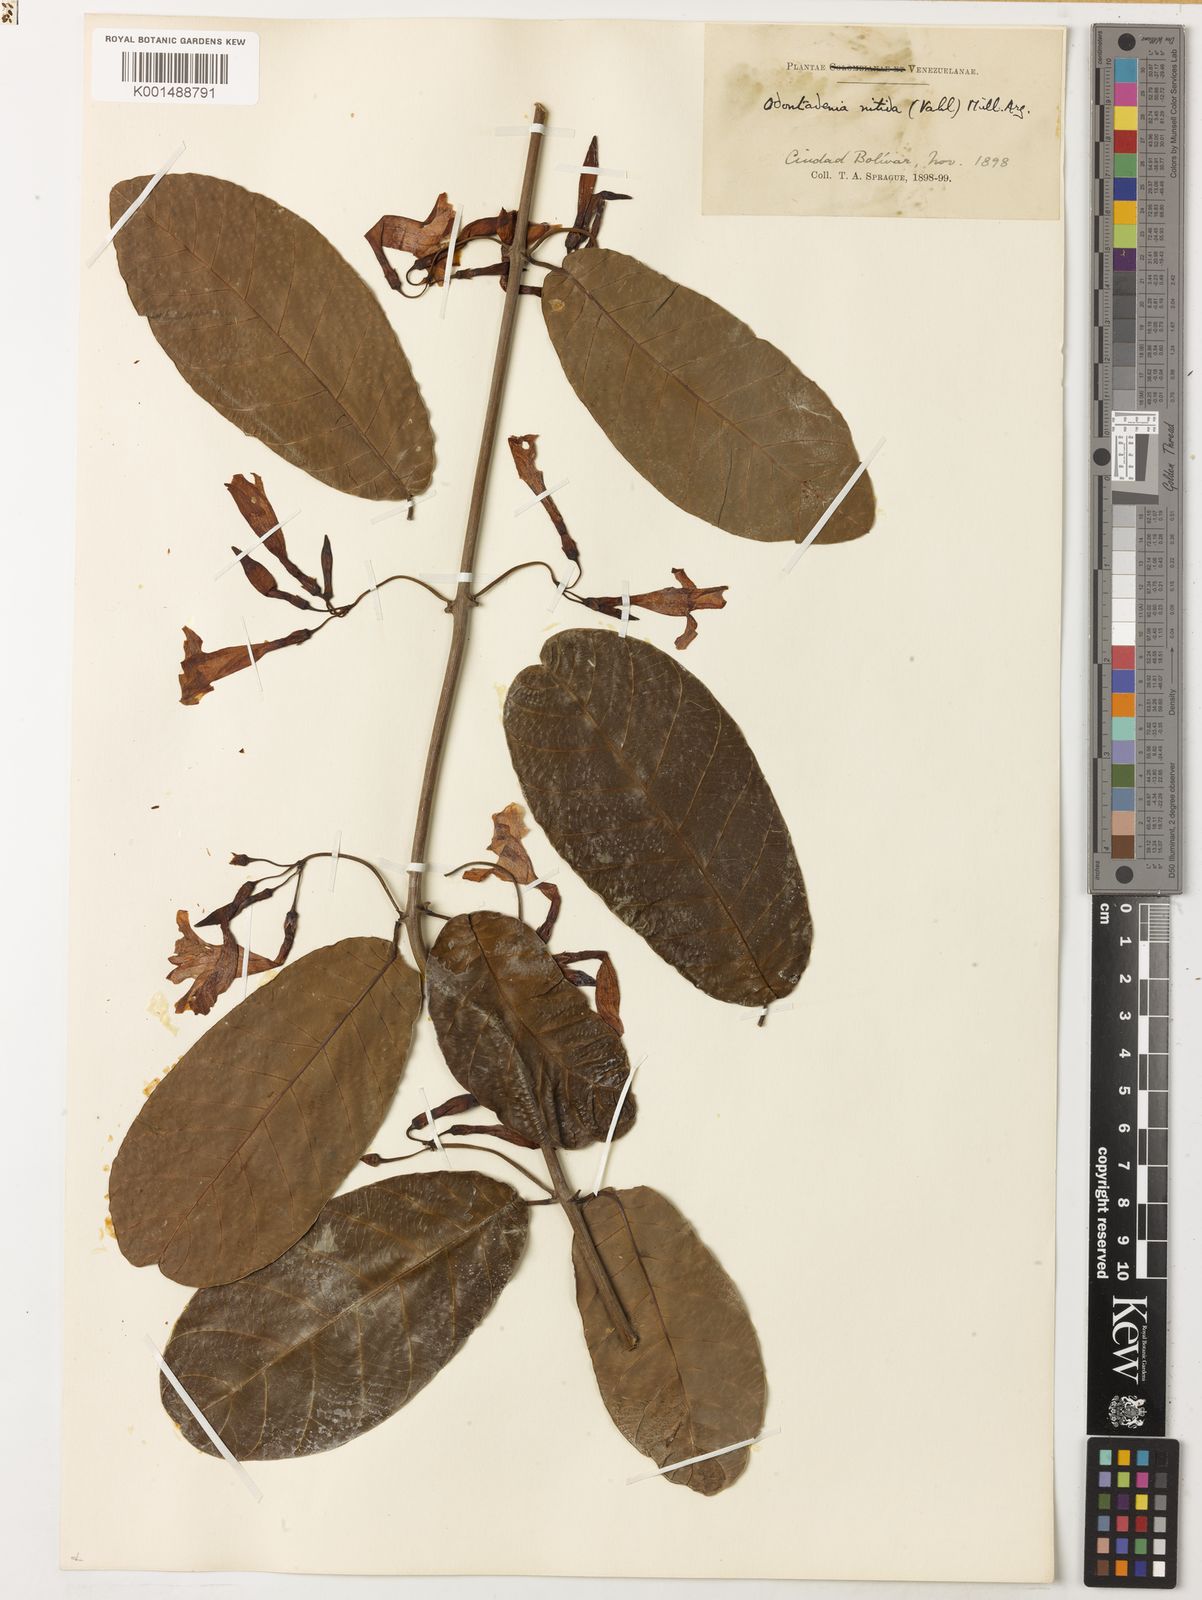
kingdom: Plantae
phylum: Tracheophyta
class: Magnoliopsida
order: Gentianales
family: Apocynaceae
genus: Odontadenia
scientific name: Odontadenia nitida
